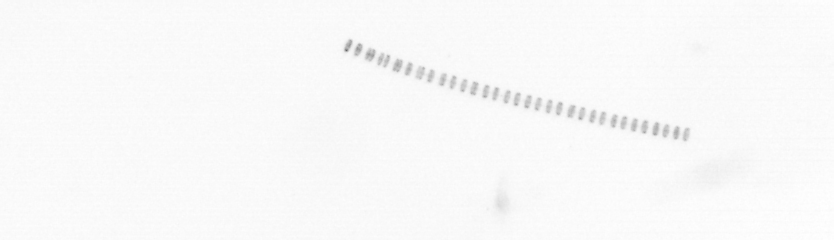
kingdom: Chromista
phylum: Ochrophyta
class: Bacillariophyceae
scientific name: Bacillariophyceae
